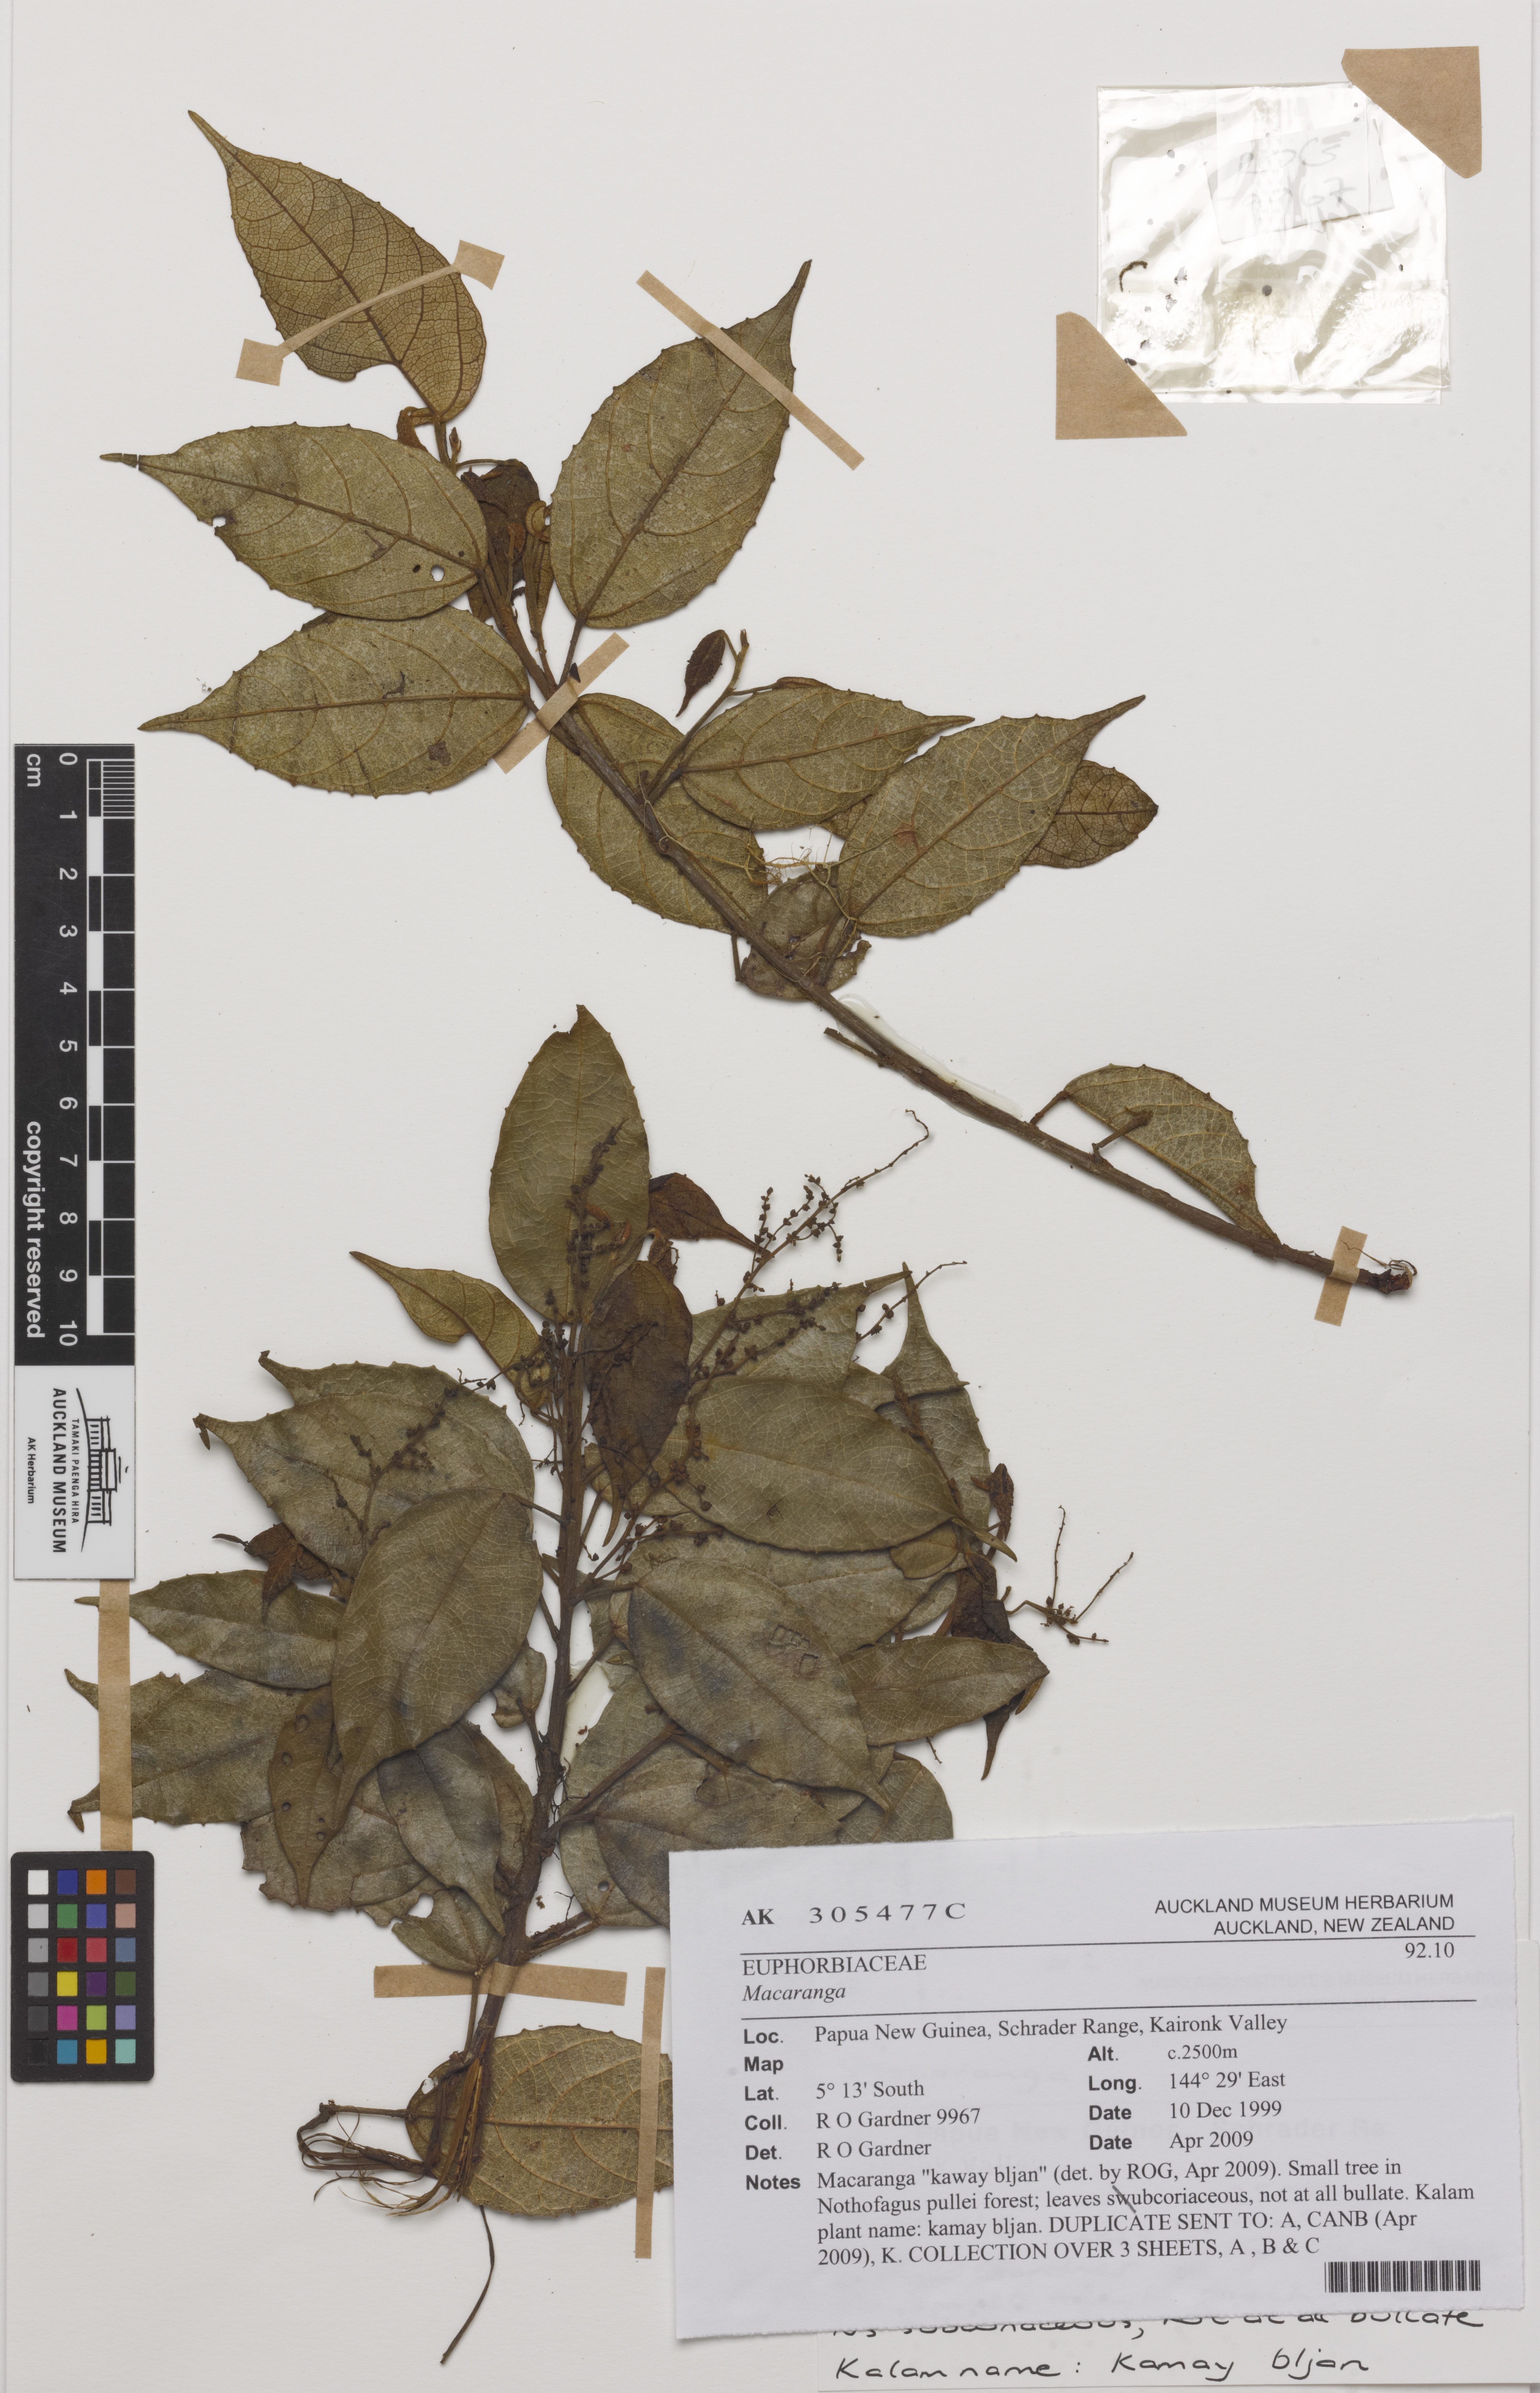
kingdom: Plantae
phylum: Tracheophyta
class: Magnoliopsida
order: Malpighiales
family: Euphorbiaceae
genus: Macaranga
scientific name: Macaranga
